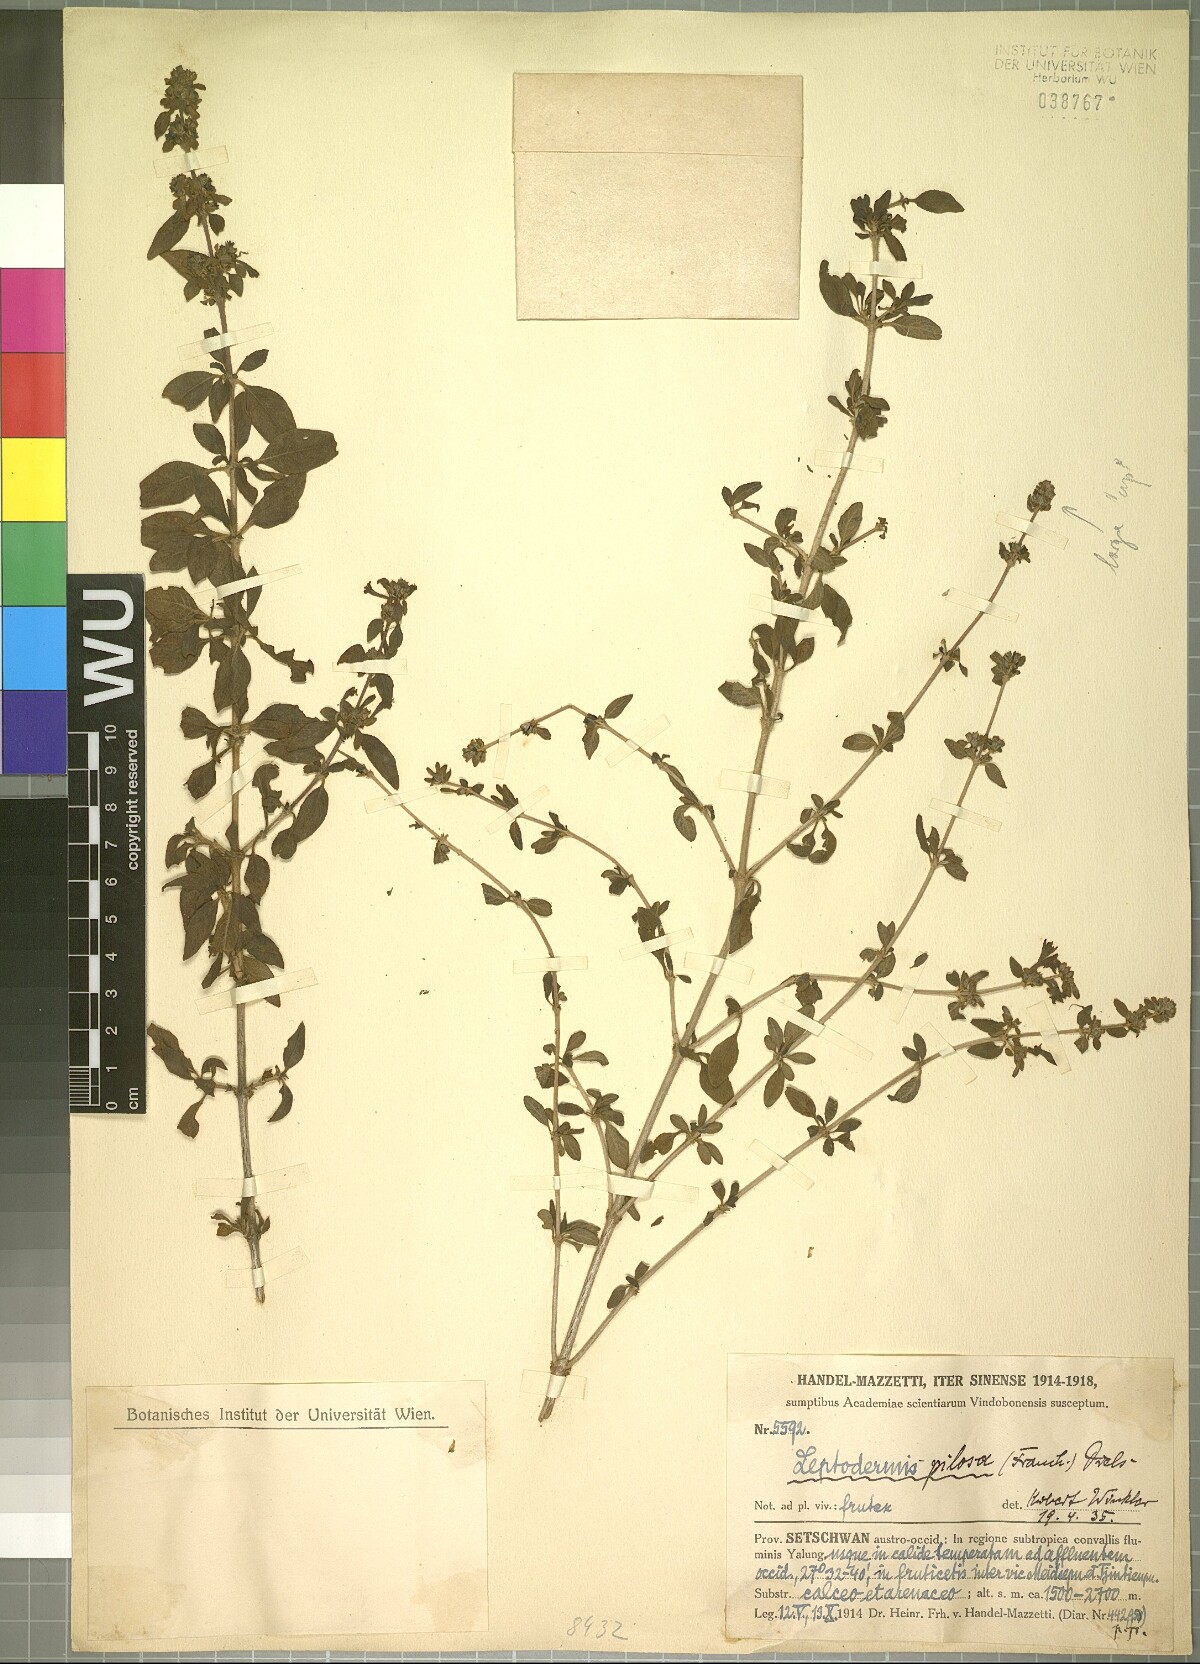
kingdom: Plantae
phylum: Tracheophyta
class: Magnoliopsida
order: Gentianales
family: Rubiaceae
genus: Leptodermis
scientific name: Leptodermis pilosa
